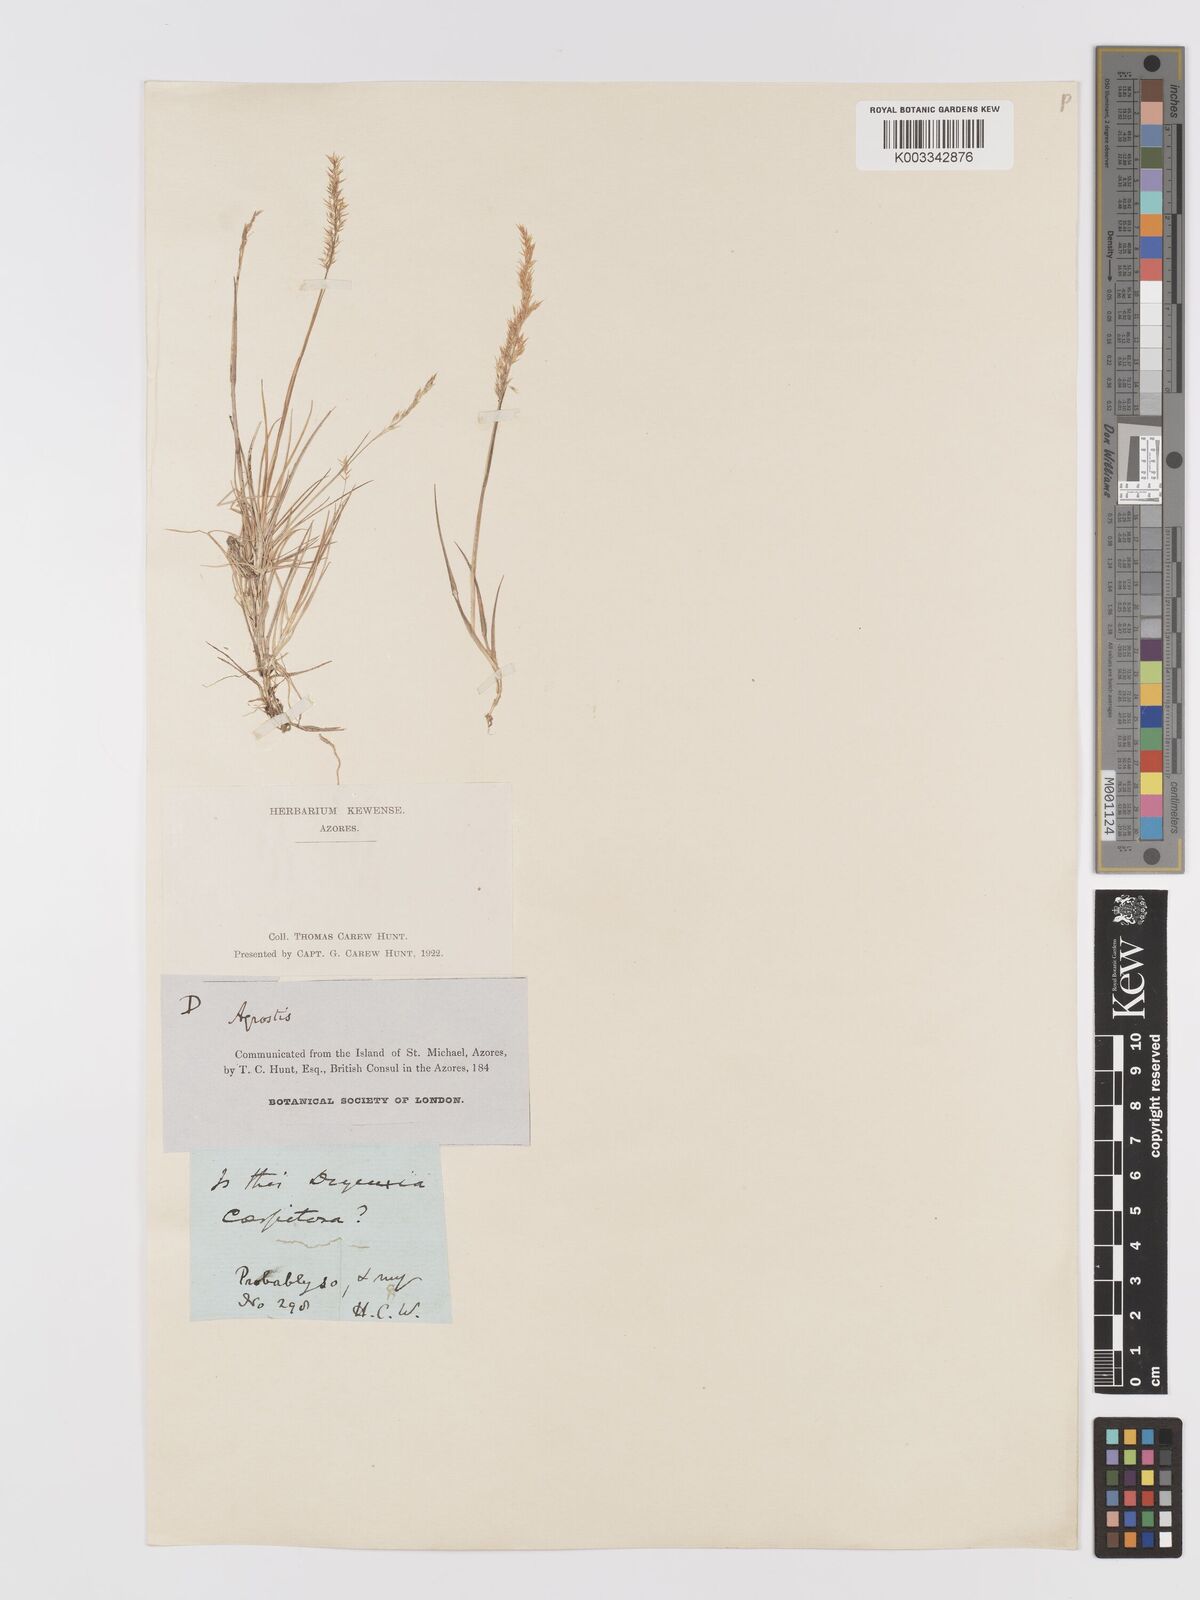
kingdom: Plantae
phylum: Tracheophyta
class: Liliopsida
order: Poales
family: Poaceae
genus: Agrostis
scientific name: Agrostis castellana
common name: Highland bent
